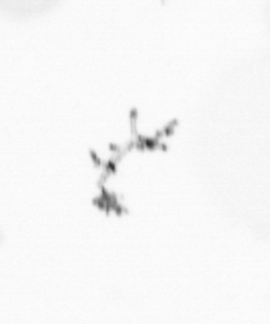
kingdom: Chromista
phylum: Ochrophyta
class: Bacillariophyceae
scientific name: Bacillariophyceae
